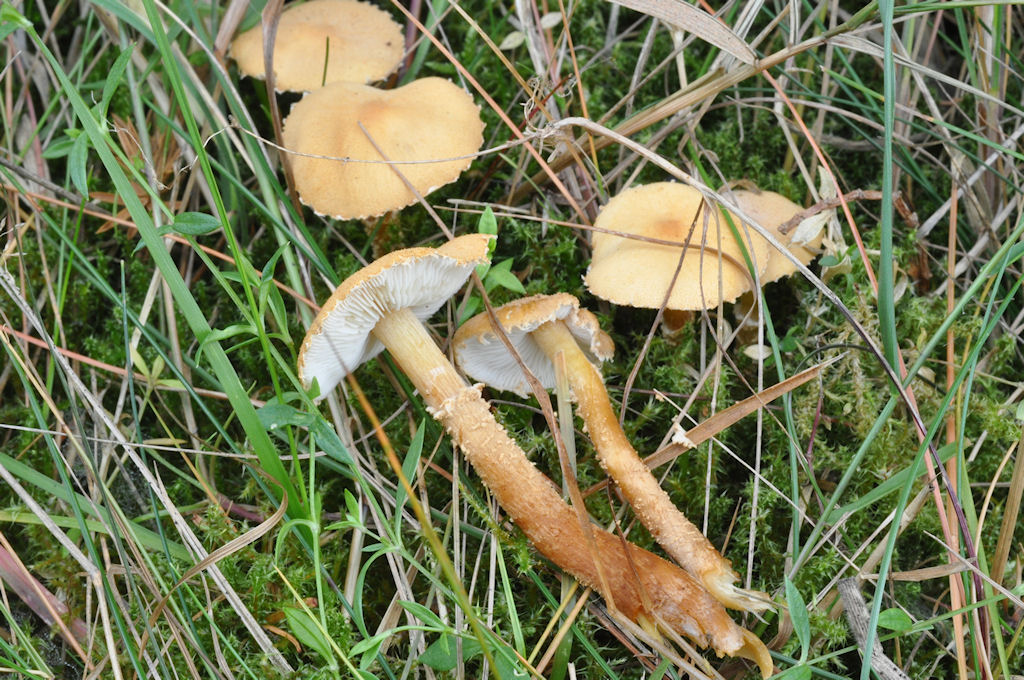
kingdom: Fungi
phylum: Basidiomycota
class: Agaricomycetes
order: Agaricales
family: Tricholomataceae
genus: Cystoderma
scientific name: Cystoderma amianthinum
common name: okkergul grynhat
